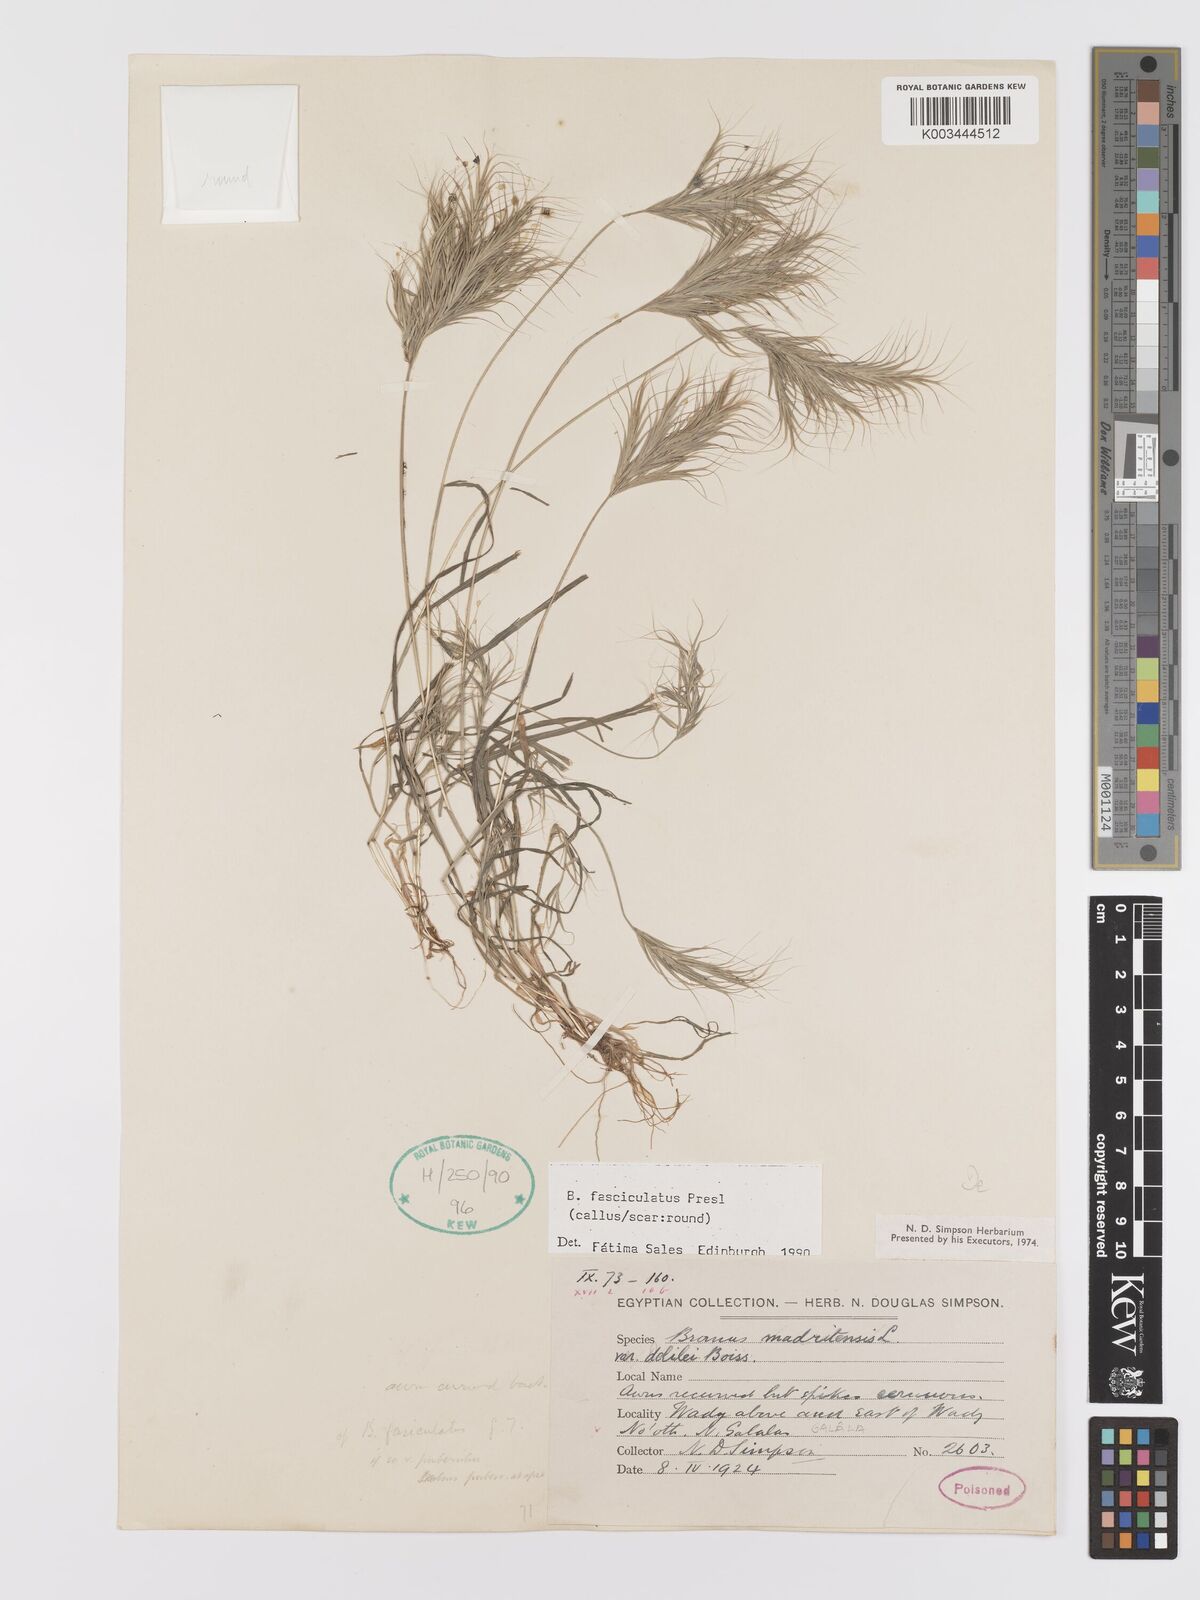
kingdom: Plantae
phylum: Tracheophyta
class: Liliopsida
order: Poales
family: Poaceae
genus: Bromus
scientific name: Bromus fasciculatus
